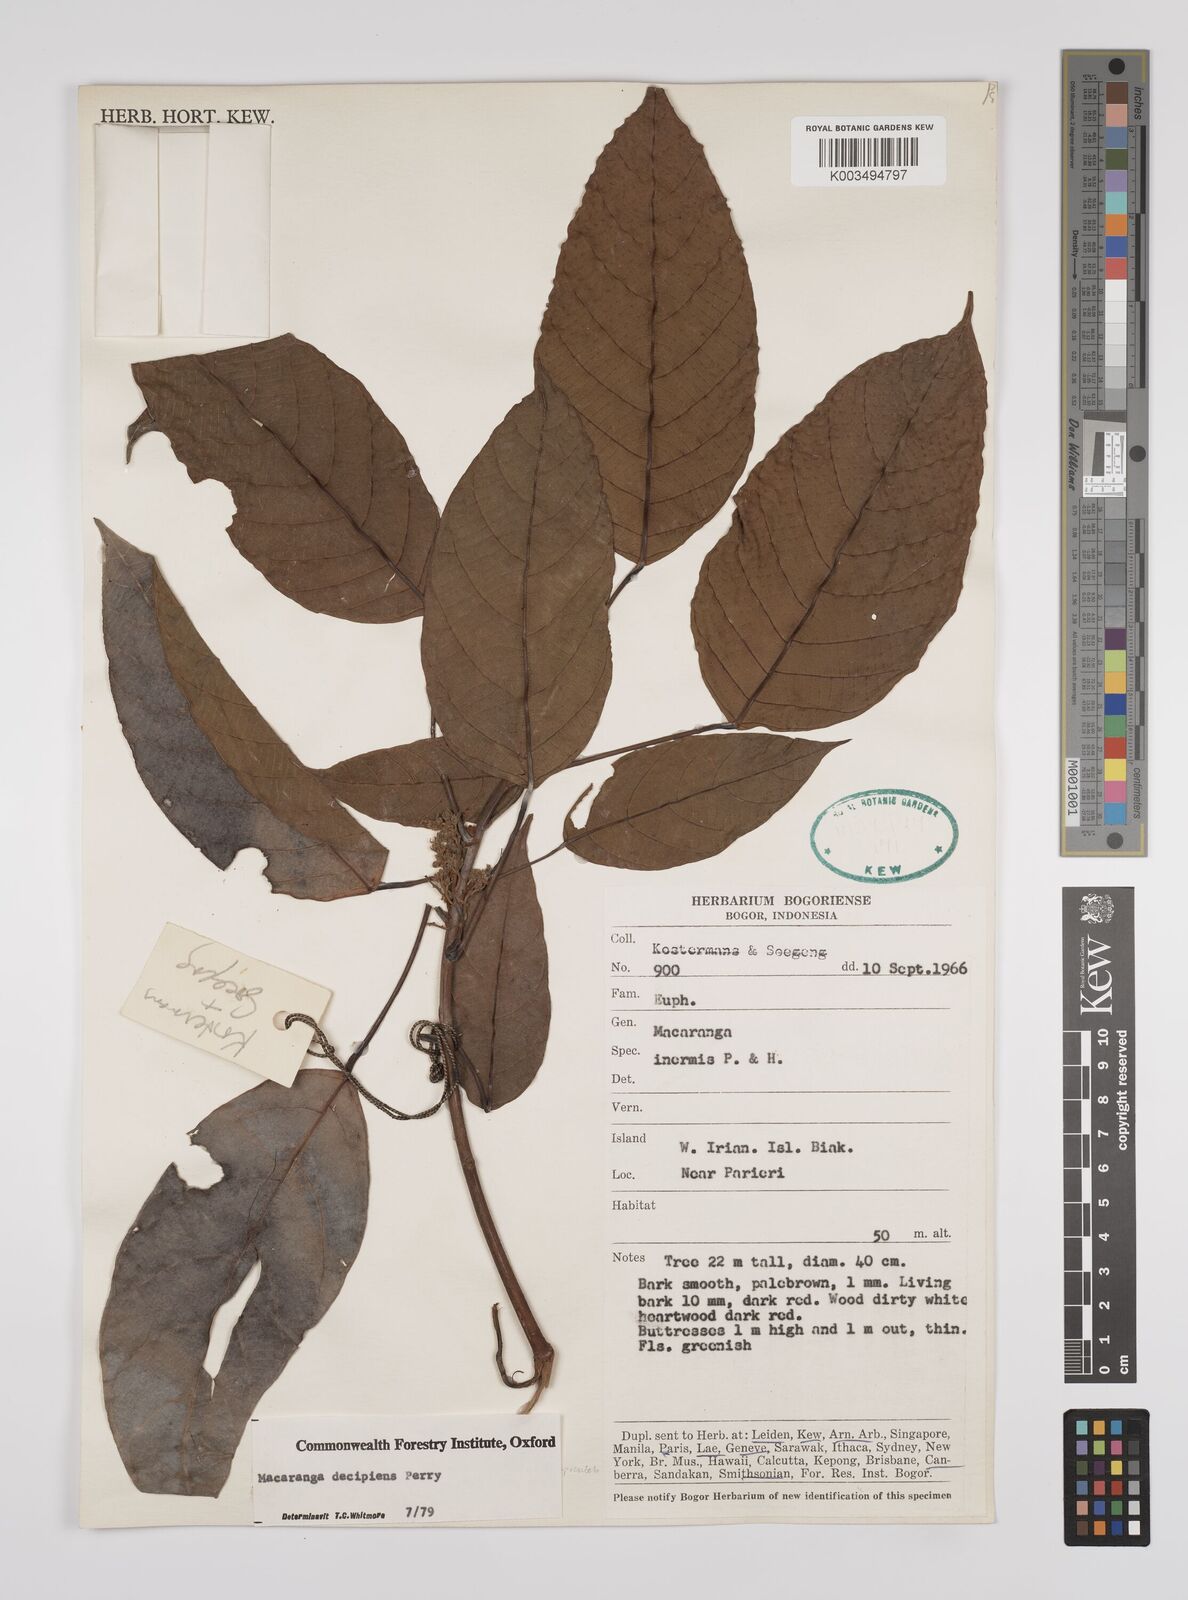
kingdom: Plantae
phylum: Tracheophyta
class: Magnoliopsida
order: Malpighiales
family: Euphorbiaceae
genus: Macaranga
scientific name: Macaranga inermis
